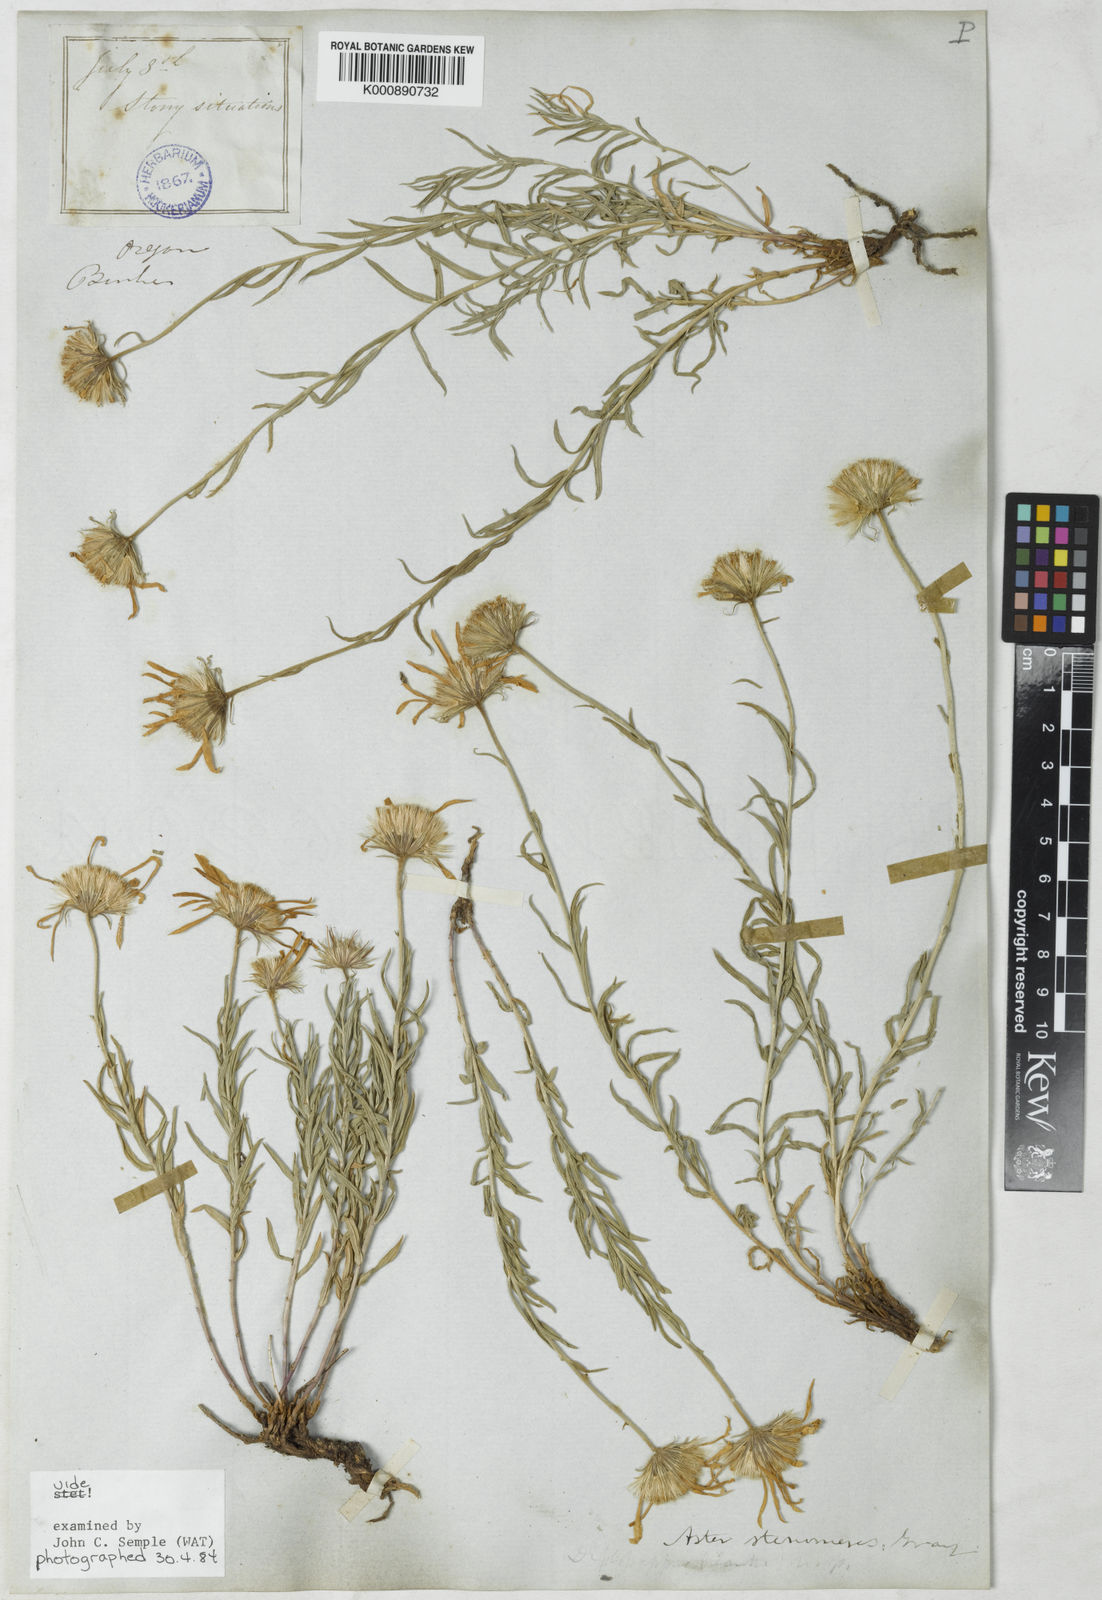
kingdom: Plantae
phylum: Tracheophyta
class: Magnoliopsida
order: Asterales
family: Asteraceae
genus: Ionactis
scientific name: Ionactis stenomeres
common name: Rocky mountain ankle-aster
